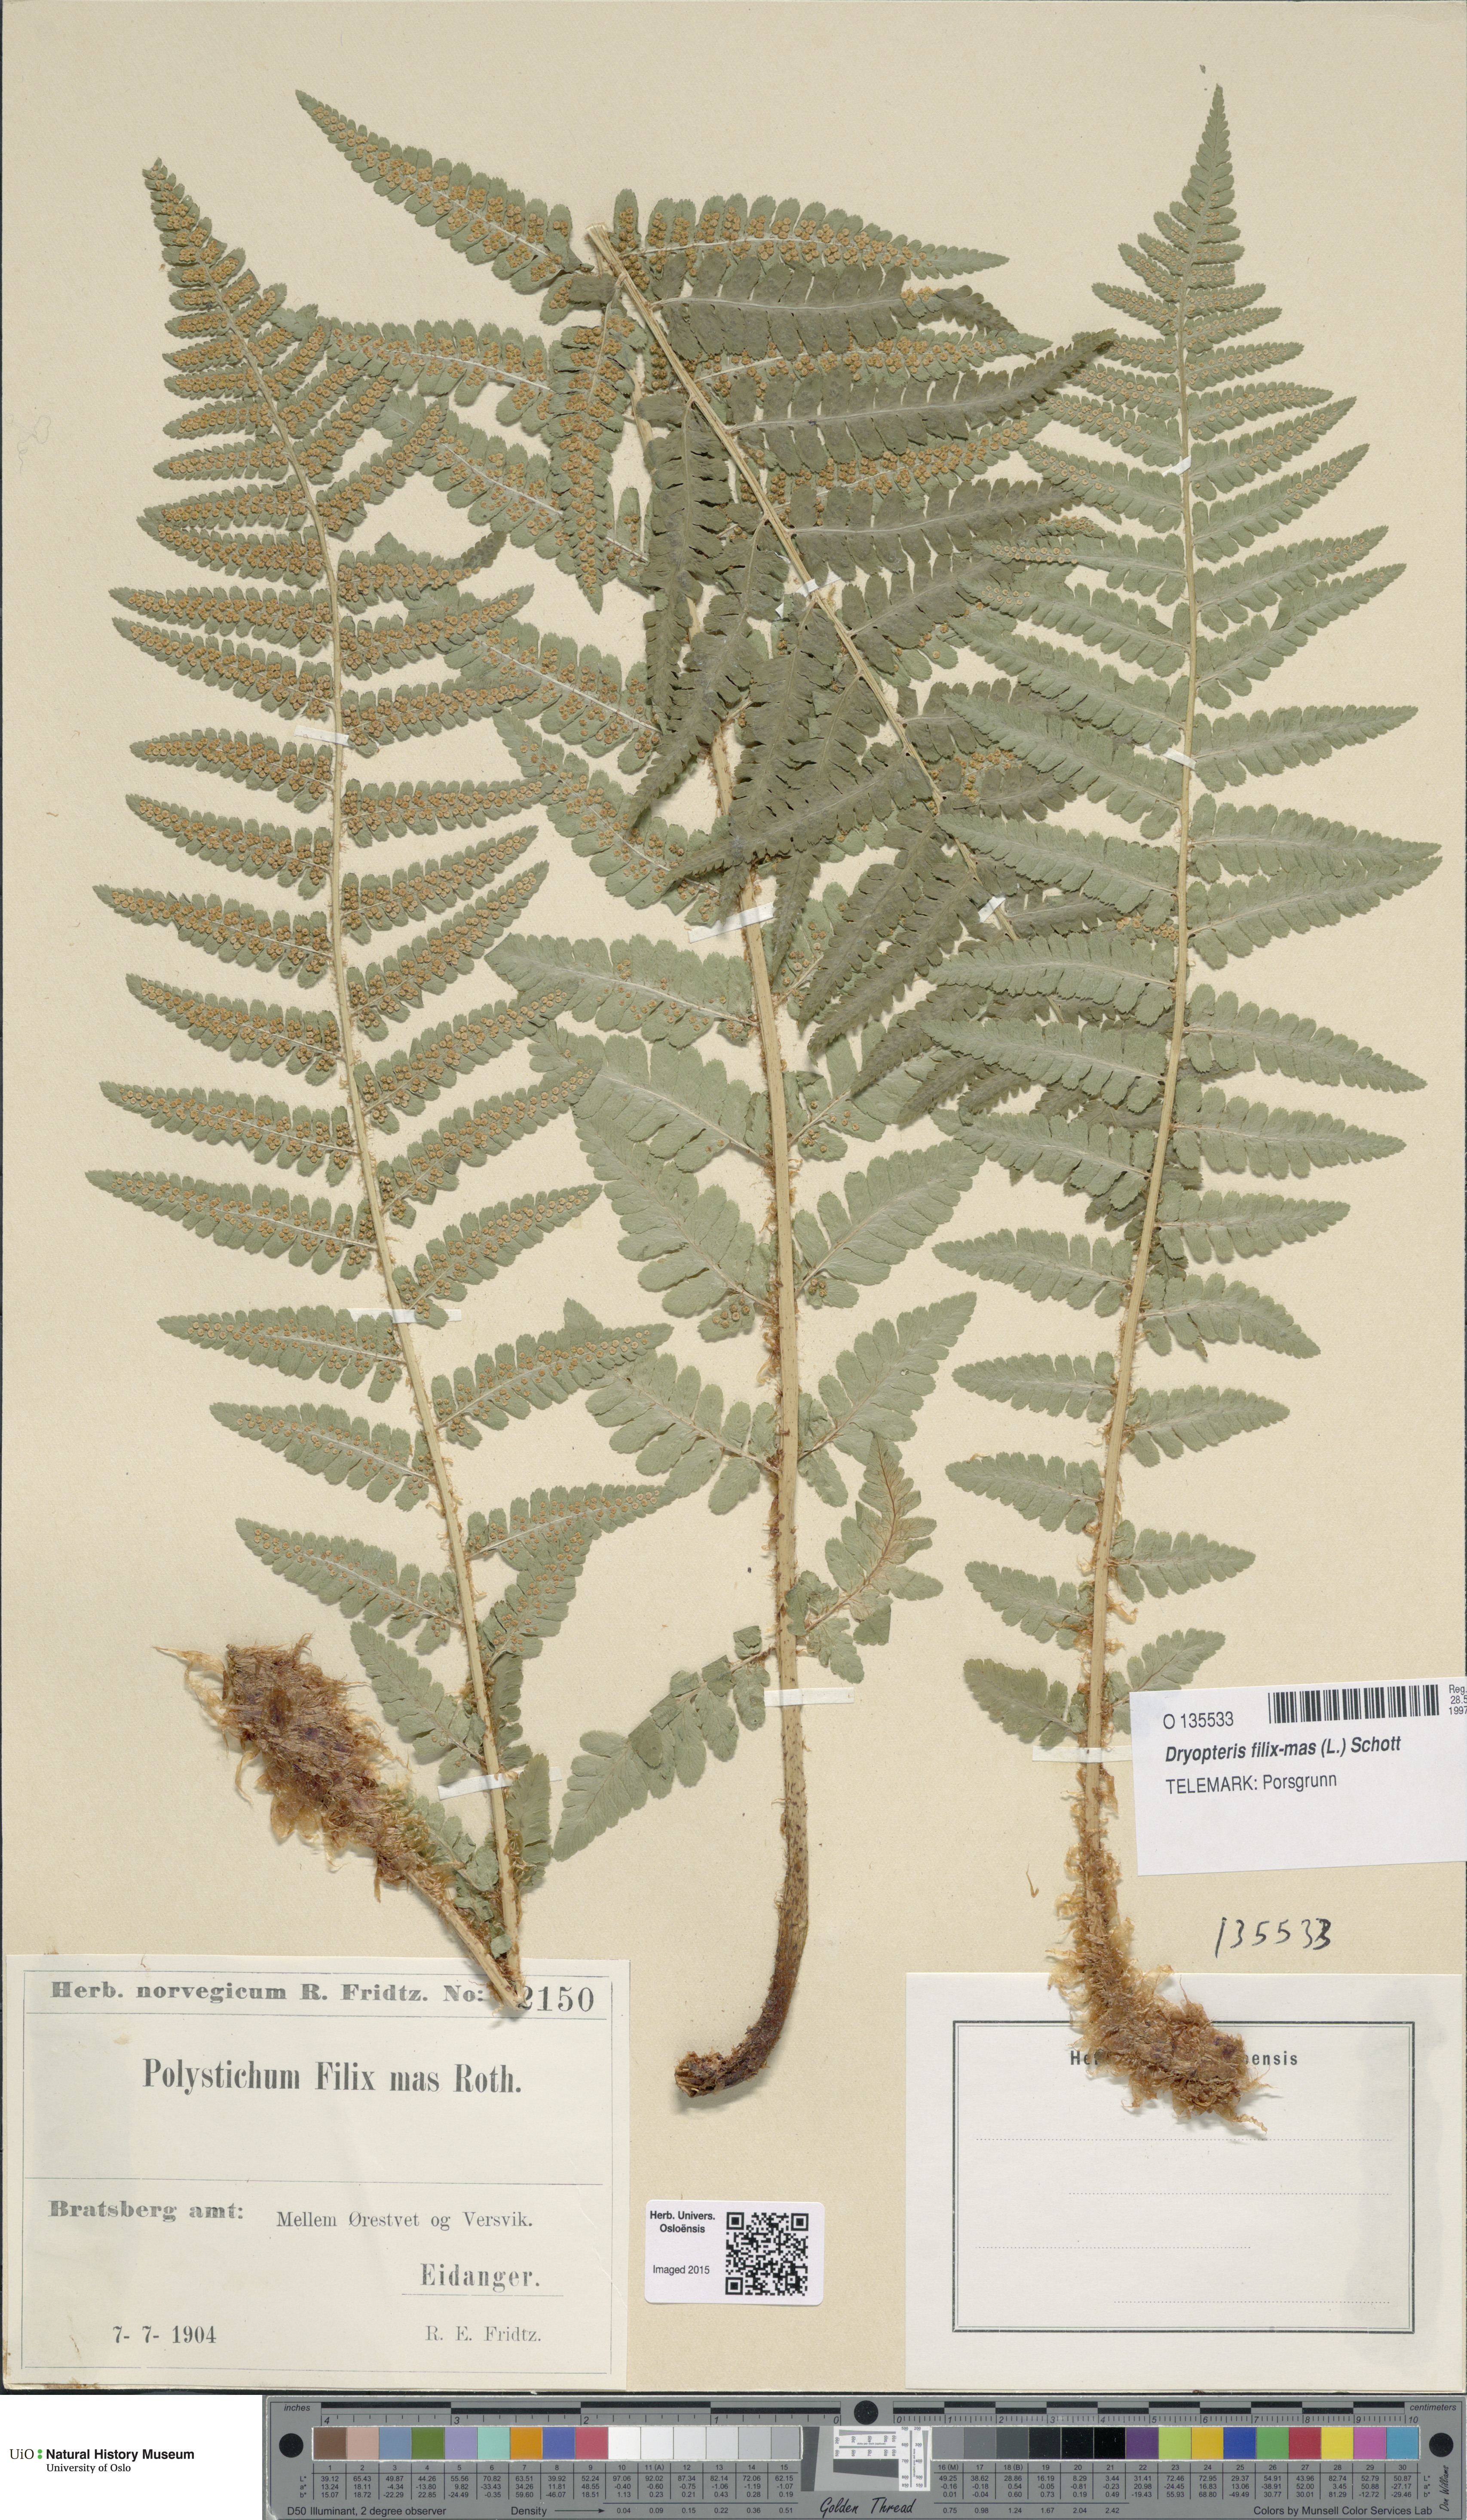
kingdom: Plantae
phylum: Tracheophyta
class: Polypodiopsida
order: Polypodiales
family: Dryopteridaceae
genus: Dryopteris
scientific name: Dryopteris filix-mas
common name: Male fern
